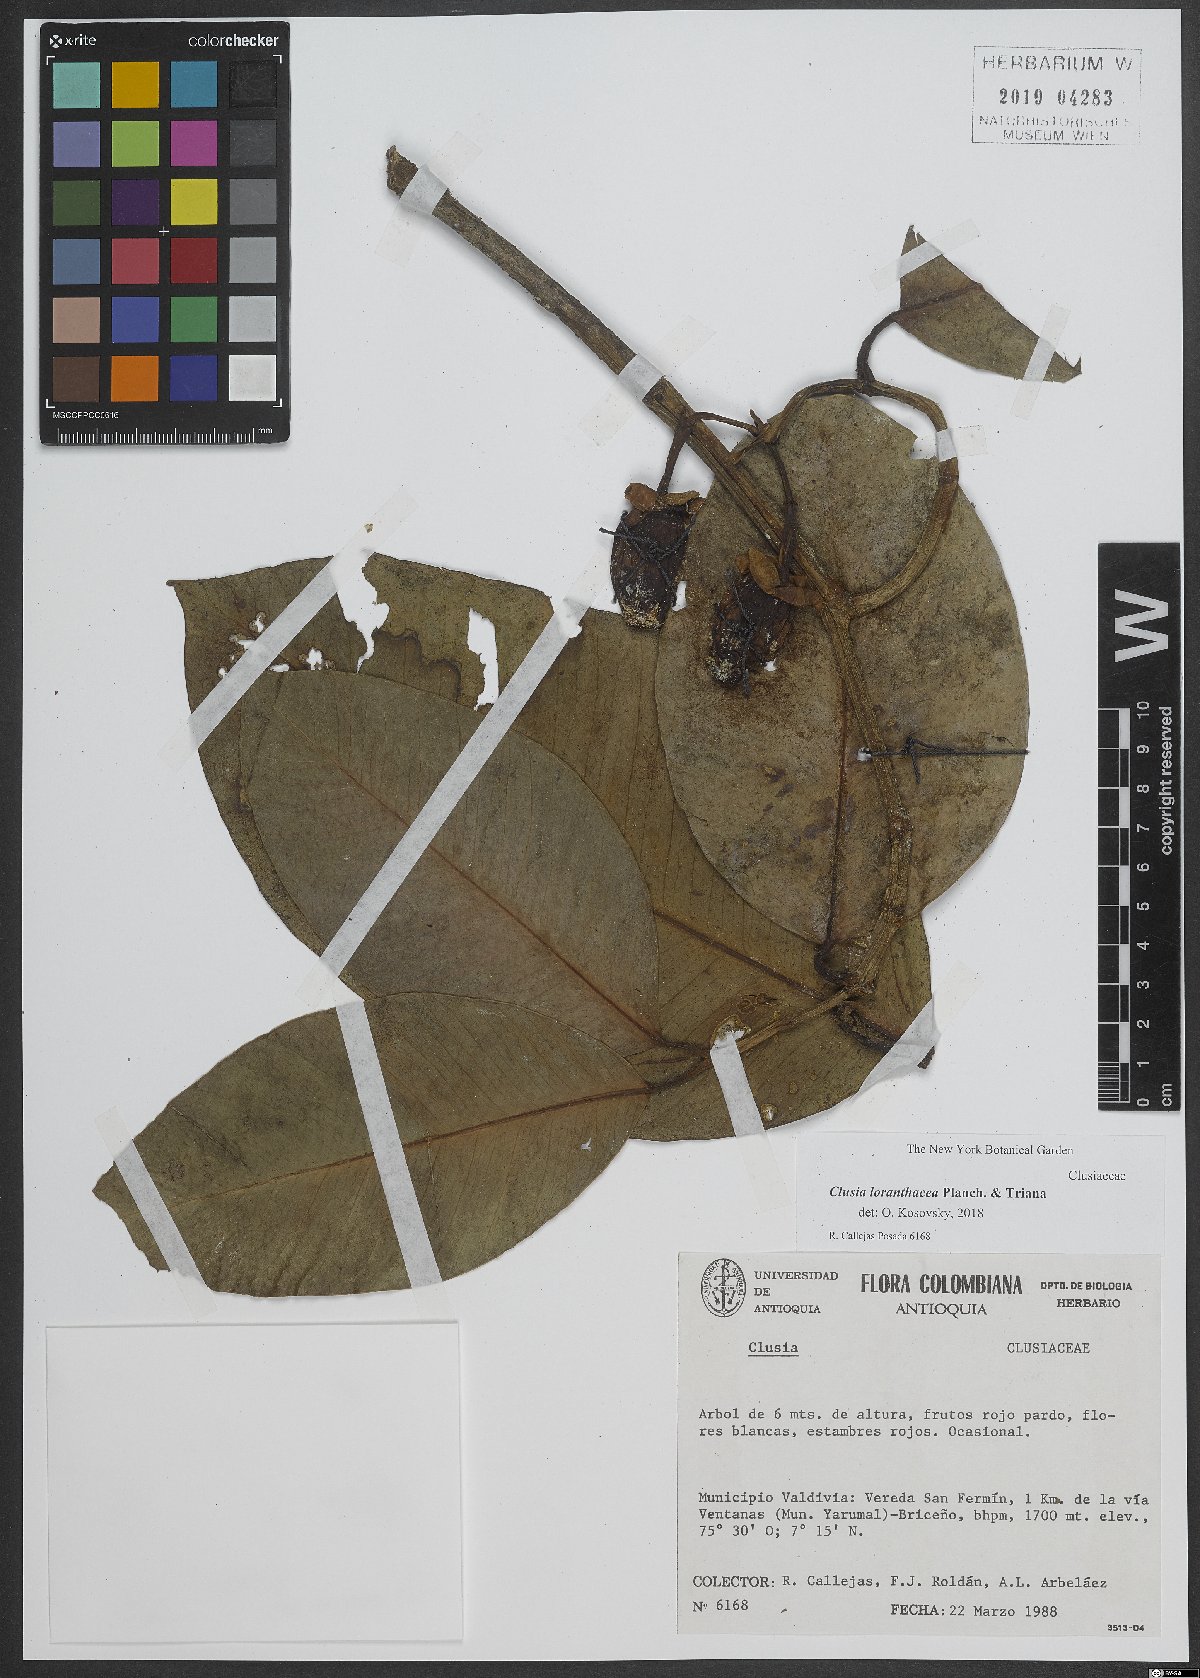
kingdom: Plantae
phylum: Tracheophyta
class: Magnoliopsida
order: Malpighiales
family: Clusiaceae
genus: Clusia
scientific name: Clusia loranthacea
